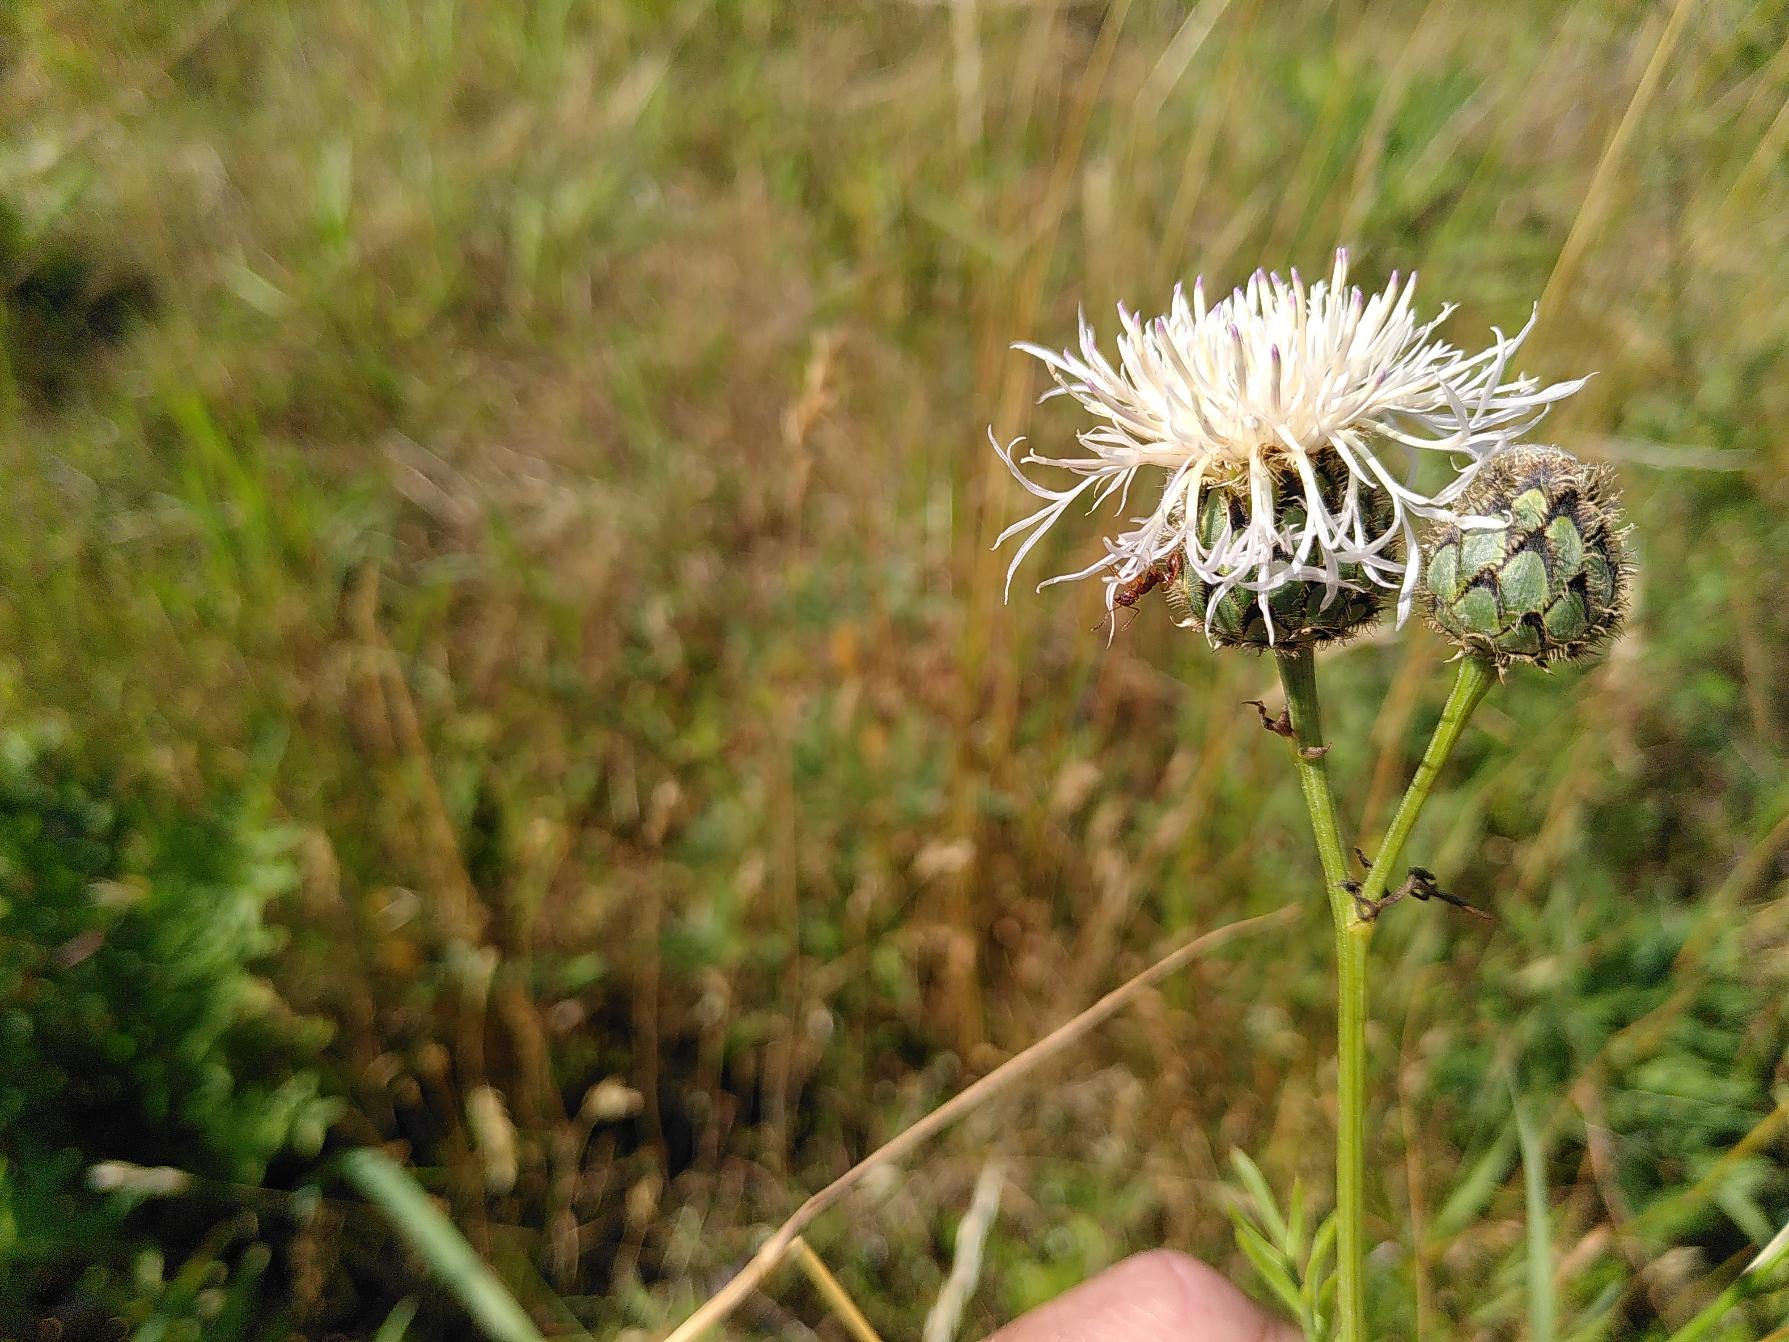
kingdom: Plantae
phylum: Tracheophyta
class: Magnoliopsida
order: Asterales
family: Asteraceae
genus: Centaurea
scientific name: Centaurea scabiosa
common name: Stor knopurt
